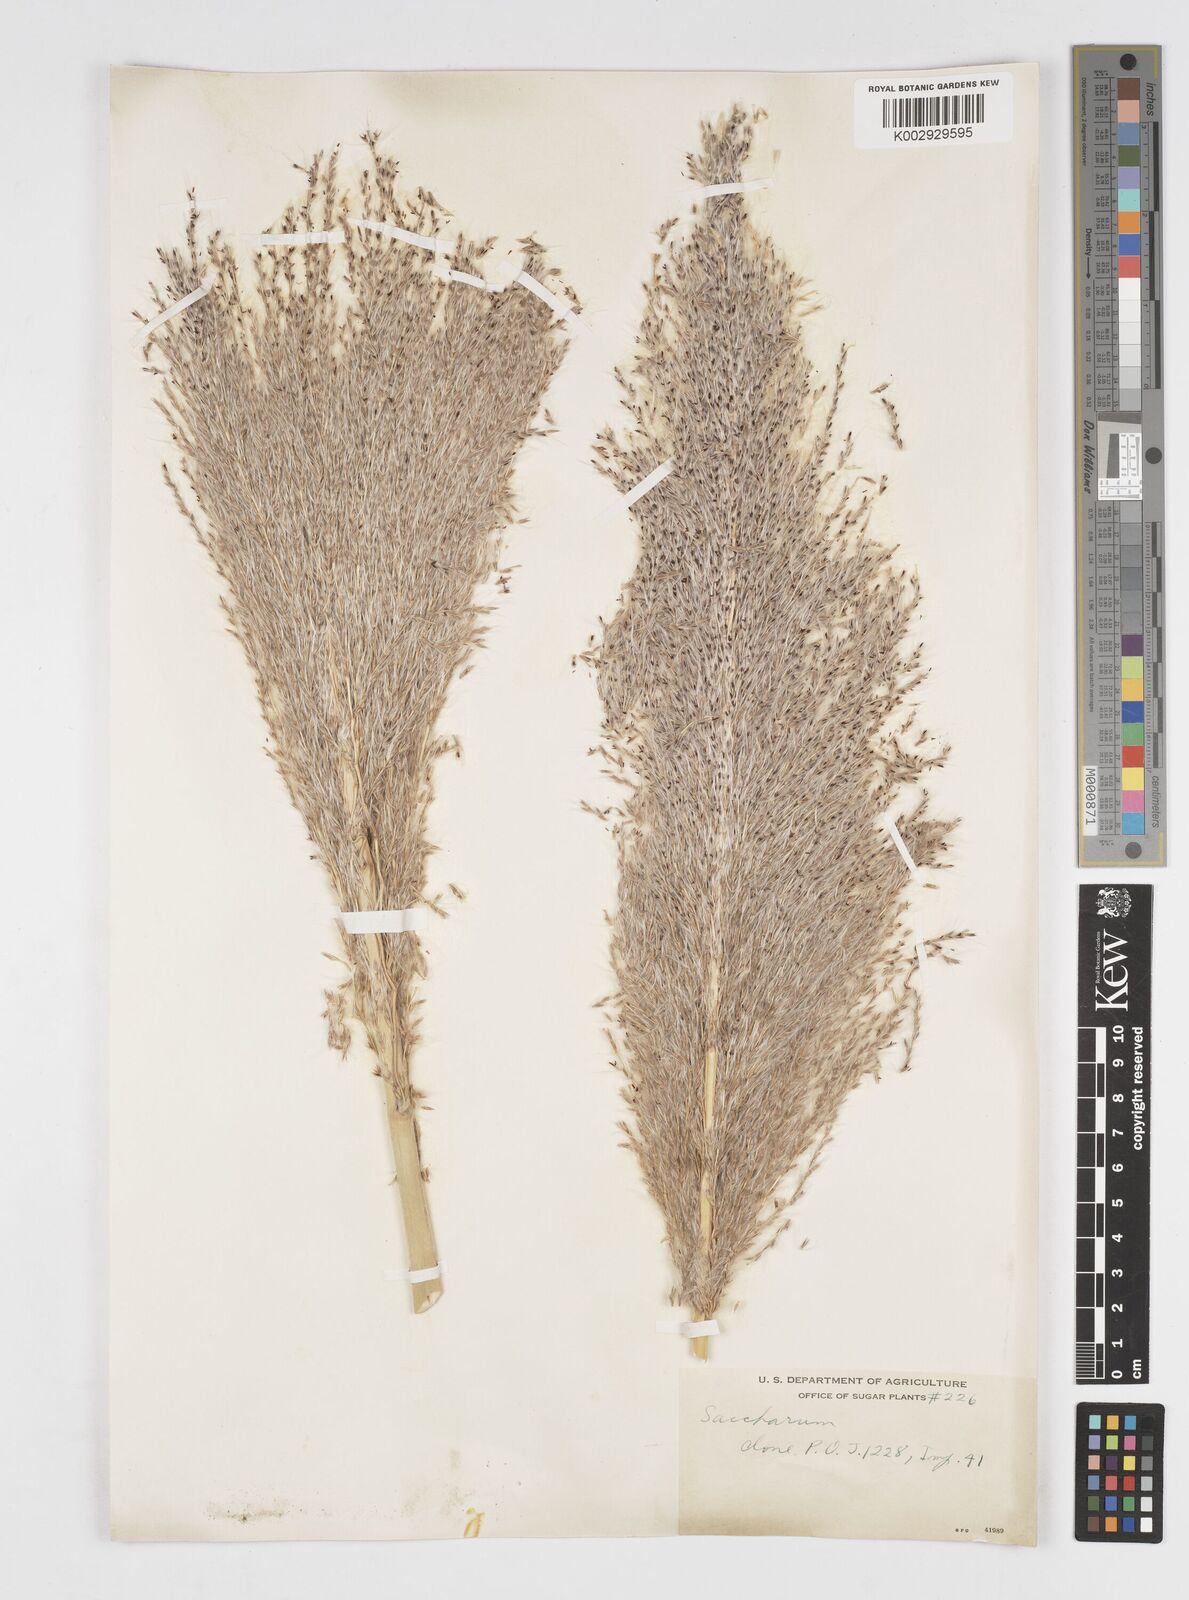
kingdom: Plantae
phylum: Tracheophyta
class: Liliopsida
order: Poales
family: Poaceae
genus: Saccharum
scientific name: Saccharum officinarum
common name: Sugarcane
